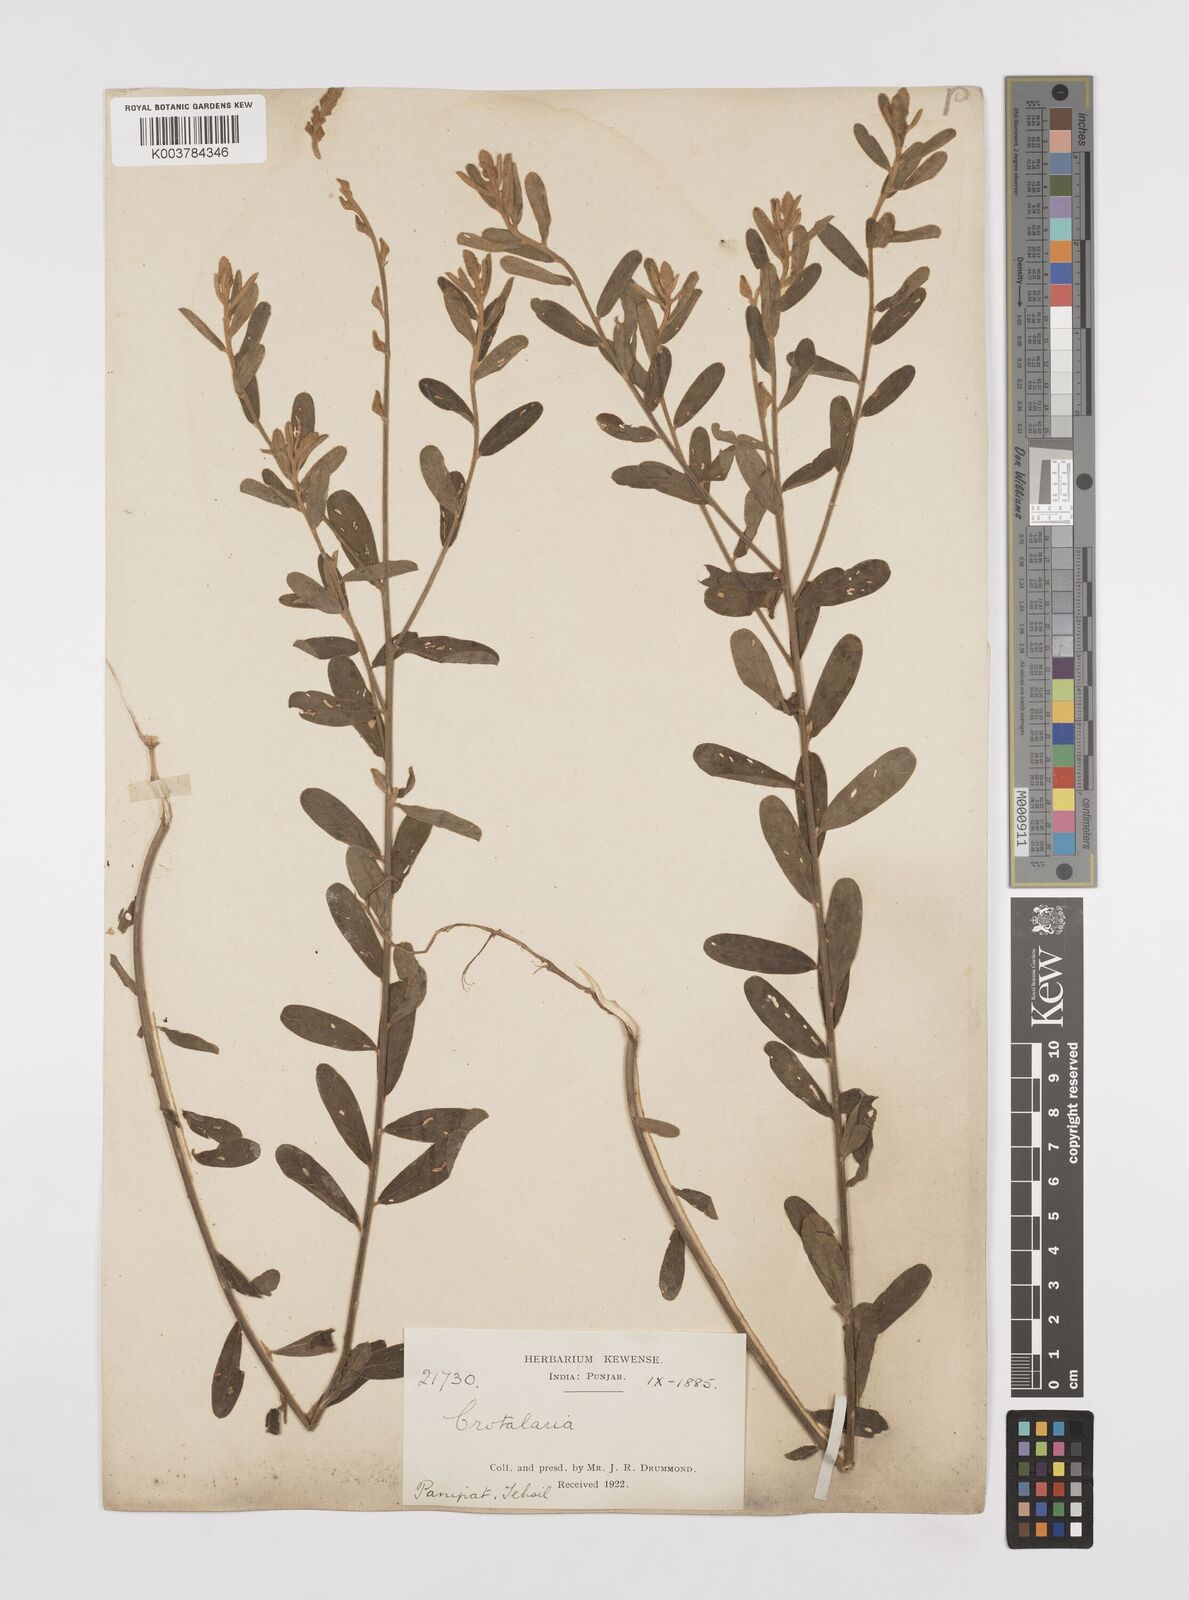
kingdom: Plantae
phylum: Tracheophyta
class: Magnoliopsida
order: Fabales
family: Fabaceae
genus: Crotalaria
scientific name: Crotalaria linifolia
